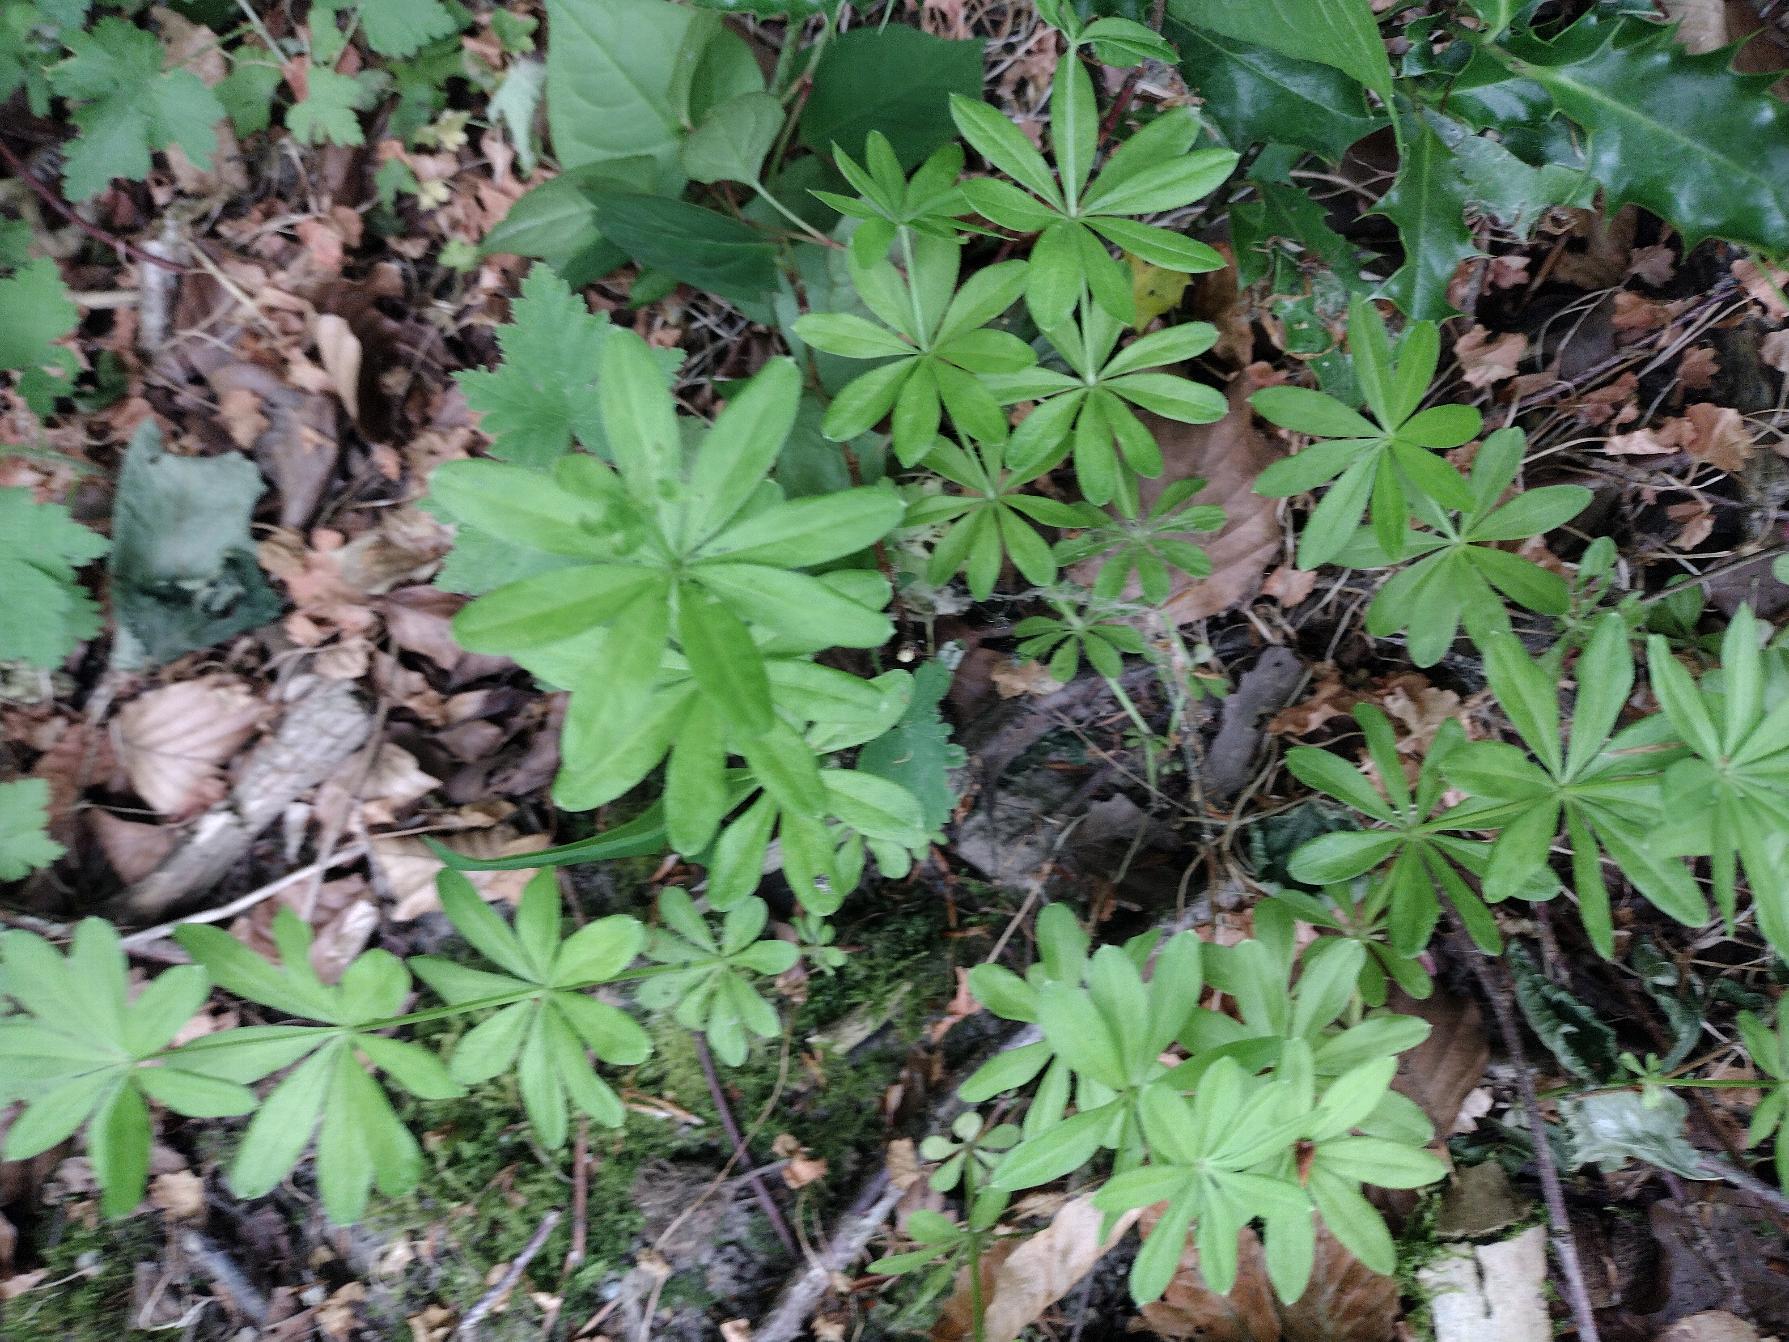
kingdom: Plantae
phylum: Tracheophyta
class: Magnoliopsida
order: Gentianales
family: Rubiaceae
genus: Galium
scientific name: Galium odoratum
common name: Skovmærke
